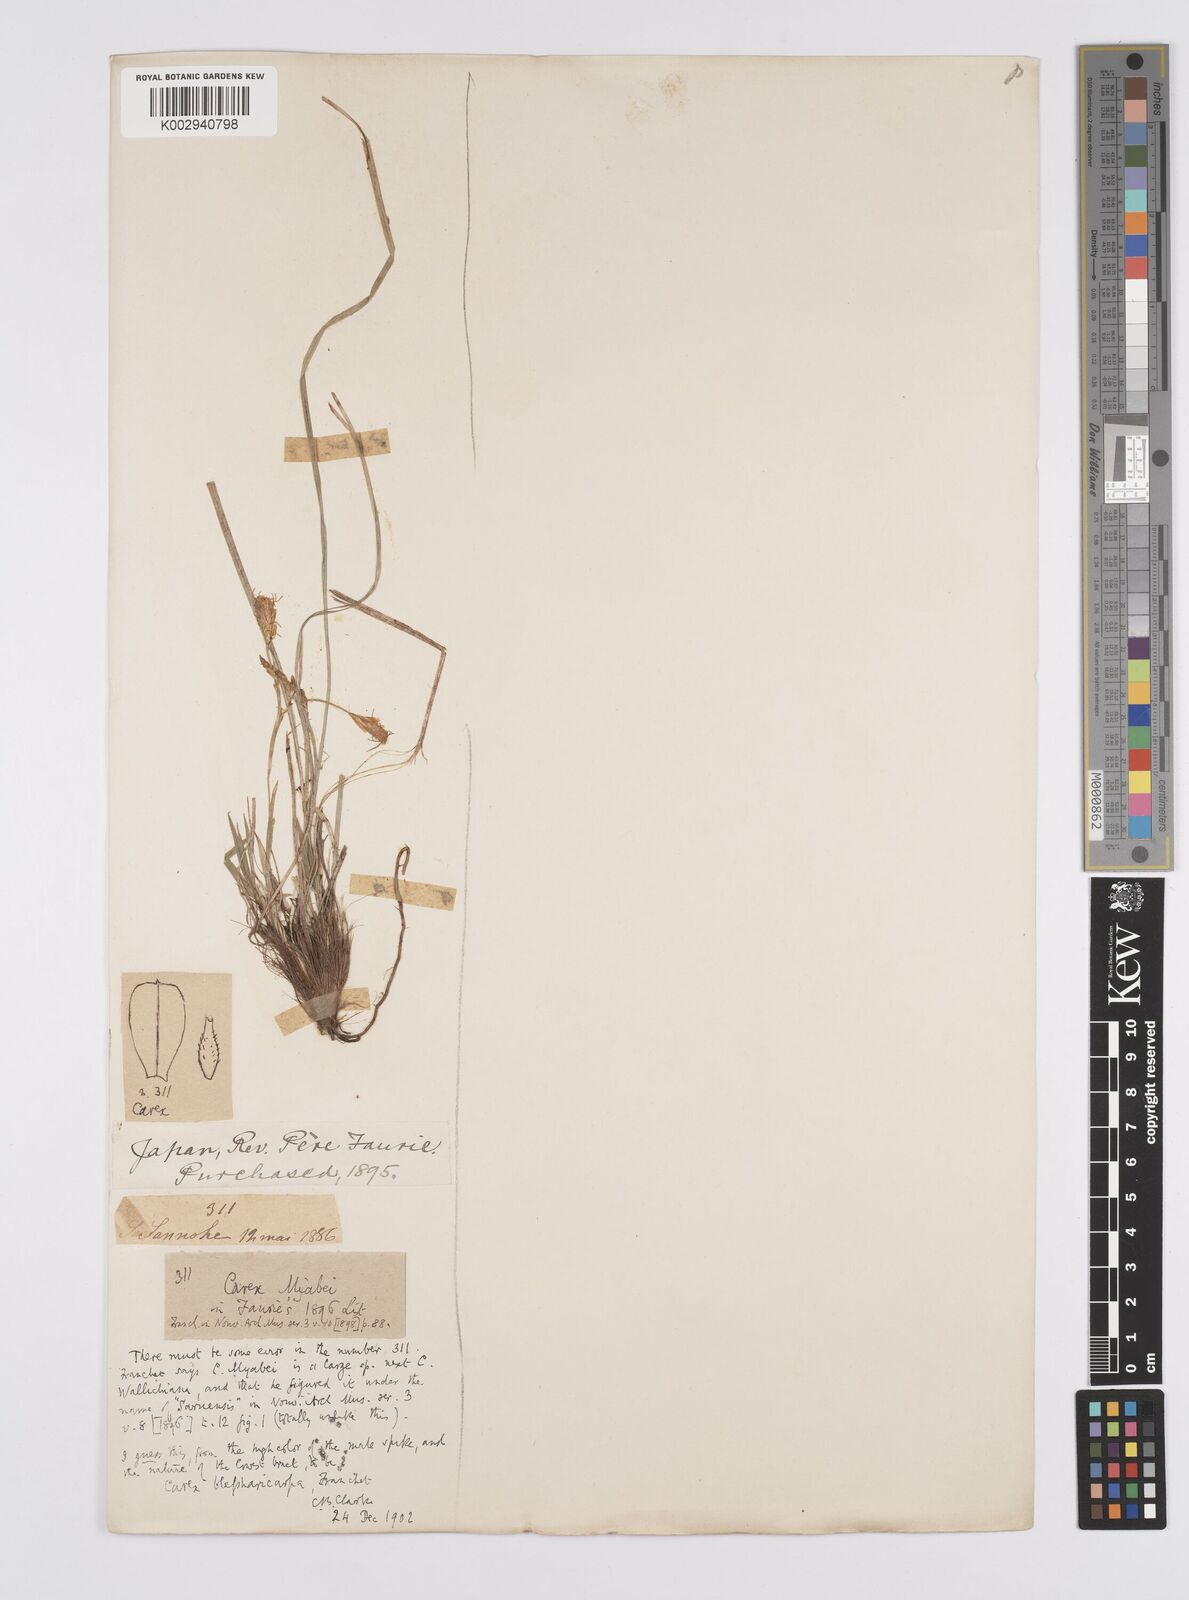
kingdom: Plantae
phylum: Tracheophyta
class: Liliopsida
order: Poales
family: Cyperaceae
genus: Carex
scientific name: Carex blepharicarpa
